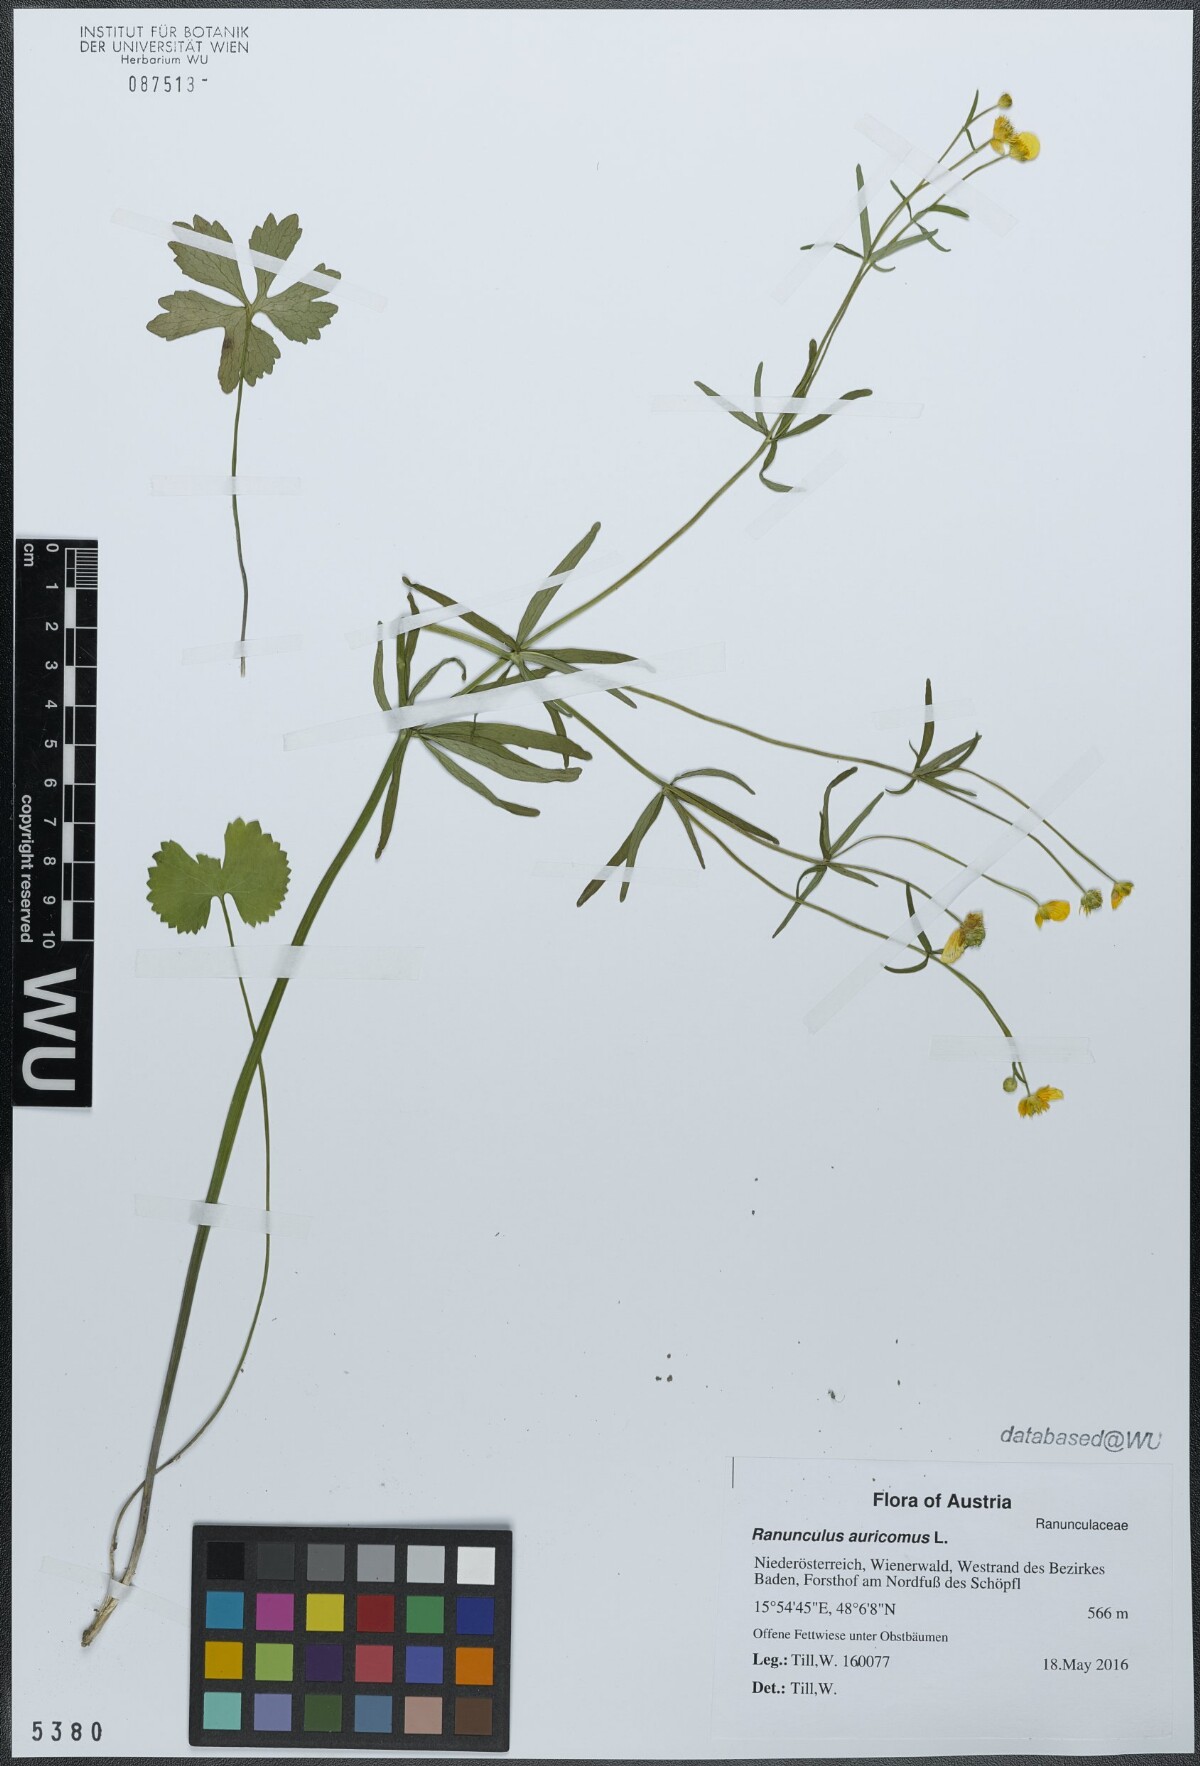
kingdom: Plantae
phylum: Tracheophyta
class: Magnoliopsida
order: Ranunculales
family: Ranunculaceae
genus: Ranunculus
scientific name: Ranunculus auricomus
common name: Goldilocks buttercup
